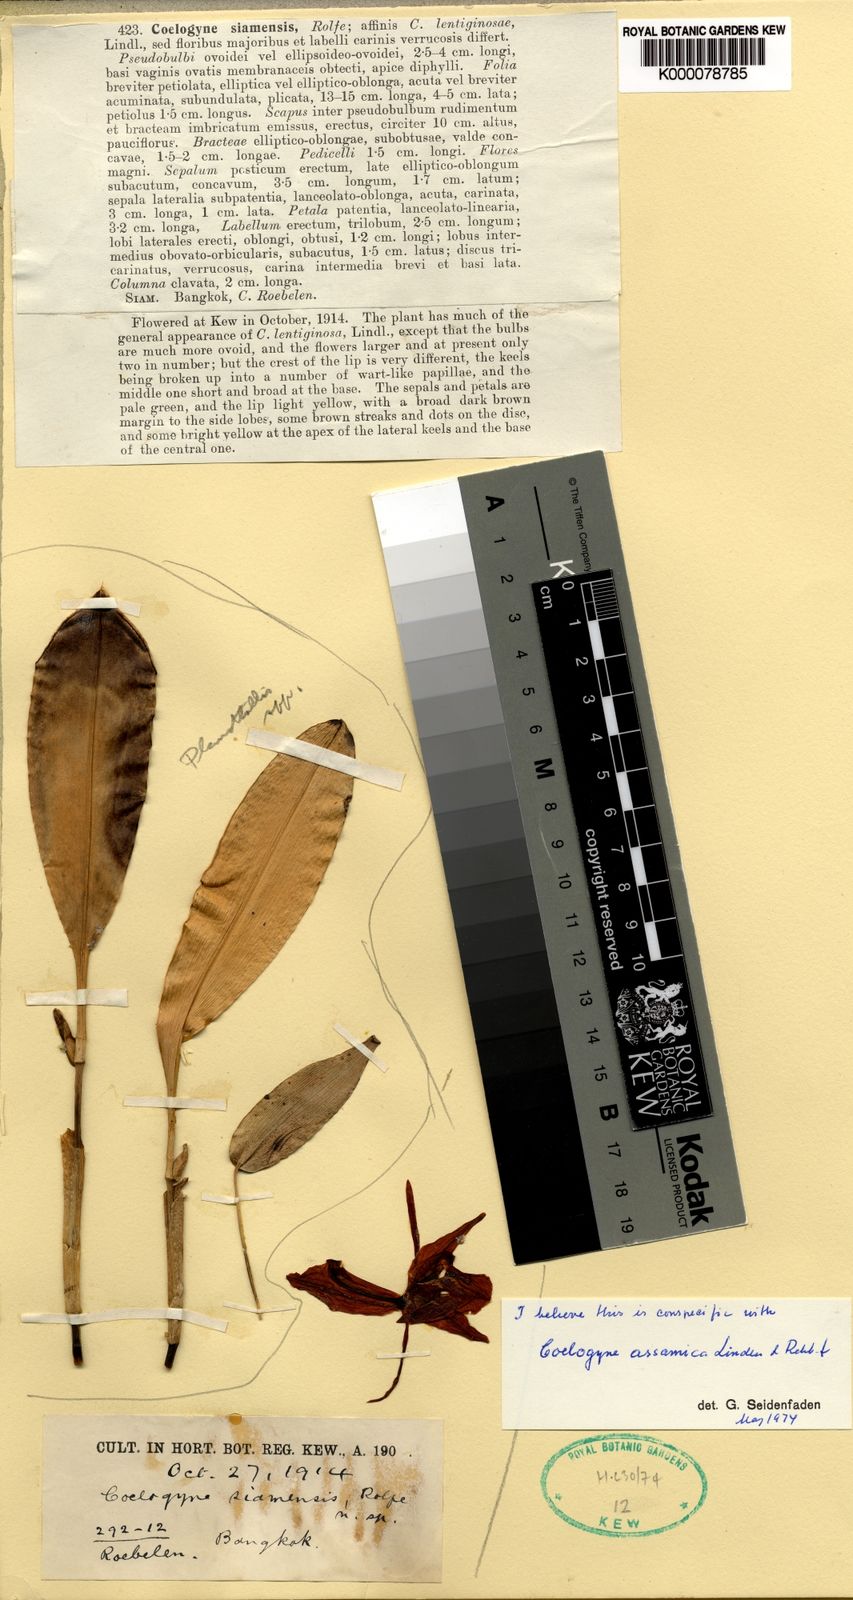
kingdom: Plantae
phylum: Tracheophyta
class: Liliopsida
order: Asparagales
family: Orchidaceae
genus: Coelogyne
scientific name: Coelogyne assamica
